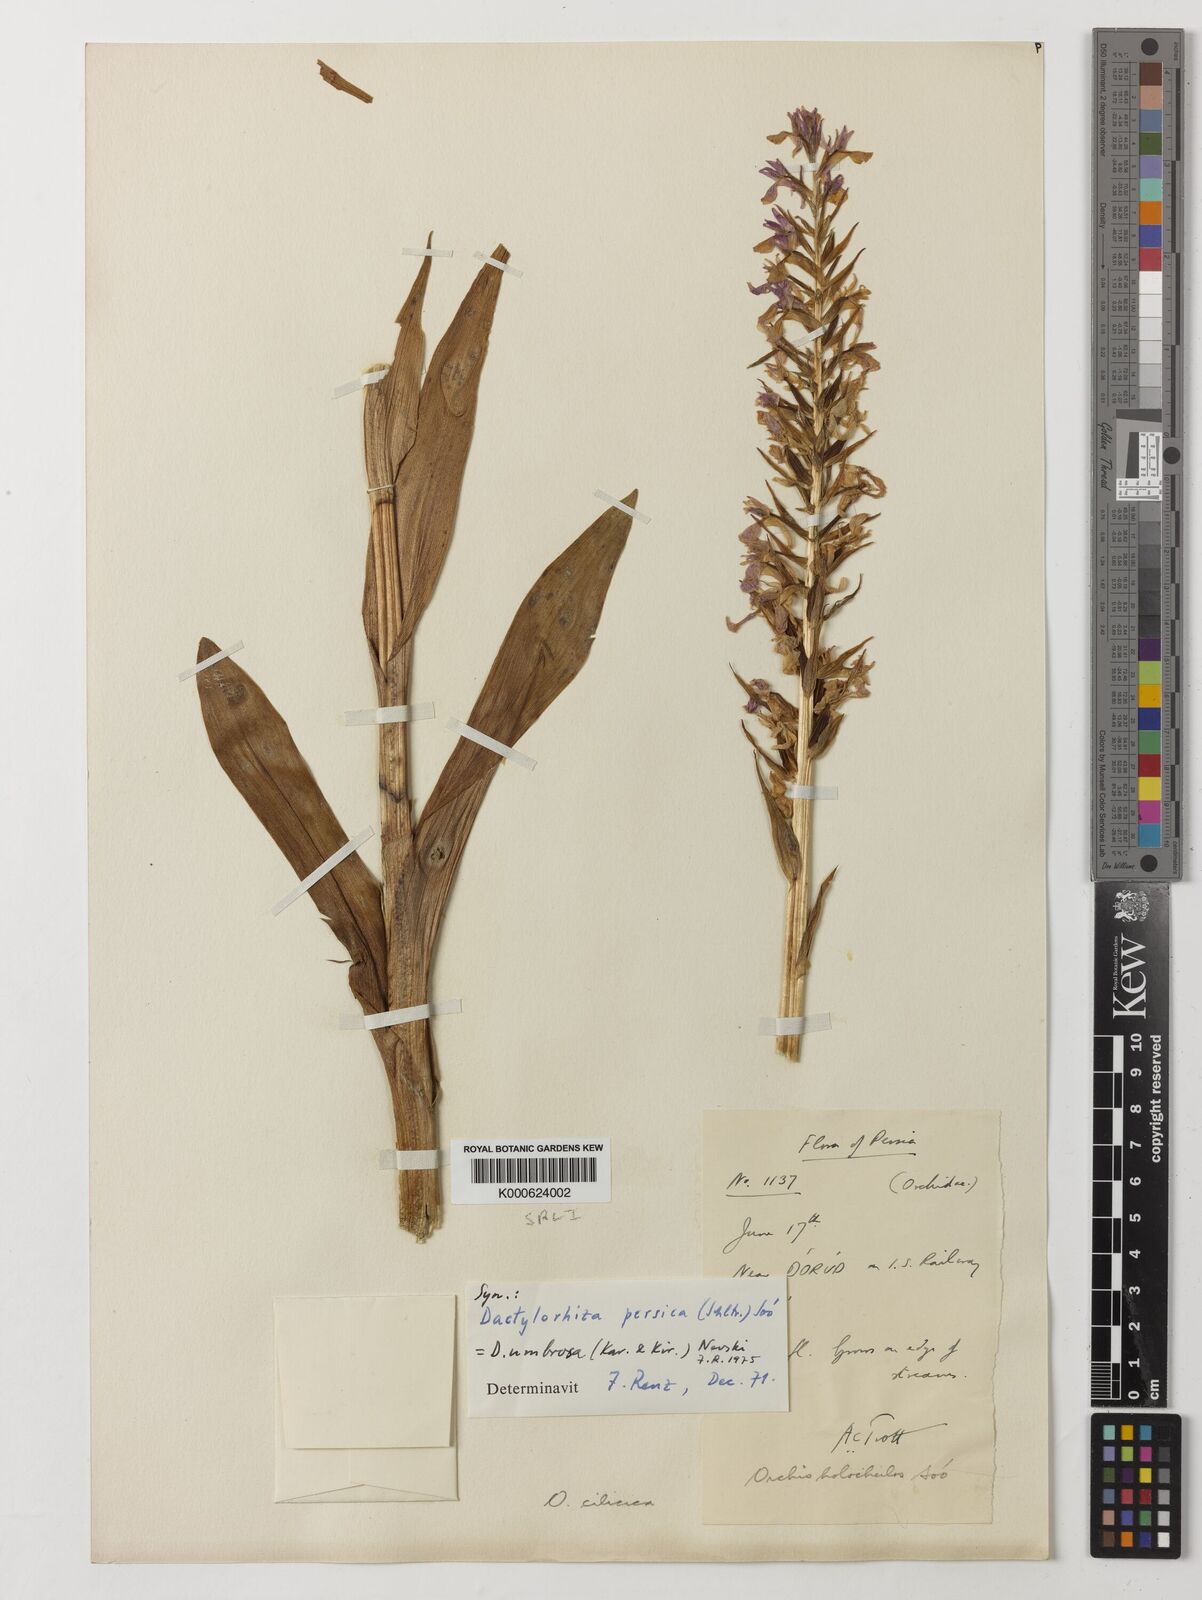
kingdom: Plantae
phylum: Tracheophyta
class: Liliopsida
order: Asparagales
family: Orchidaceae
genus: Dactylorhiza
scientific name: Dactylorhiza
